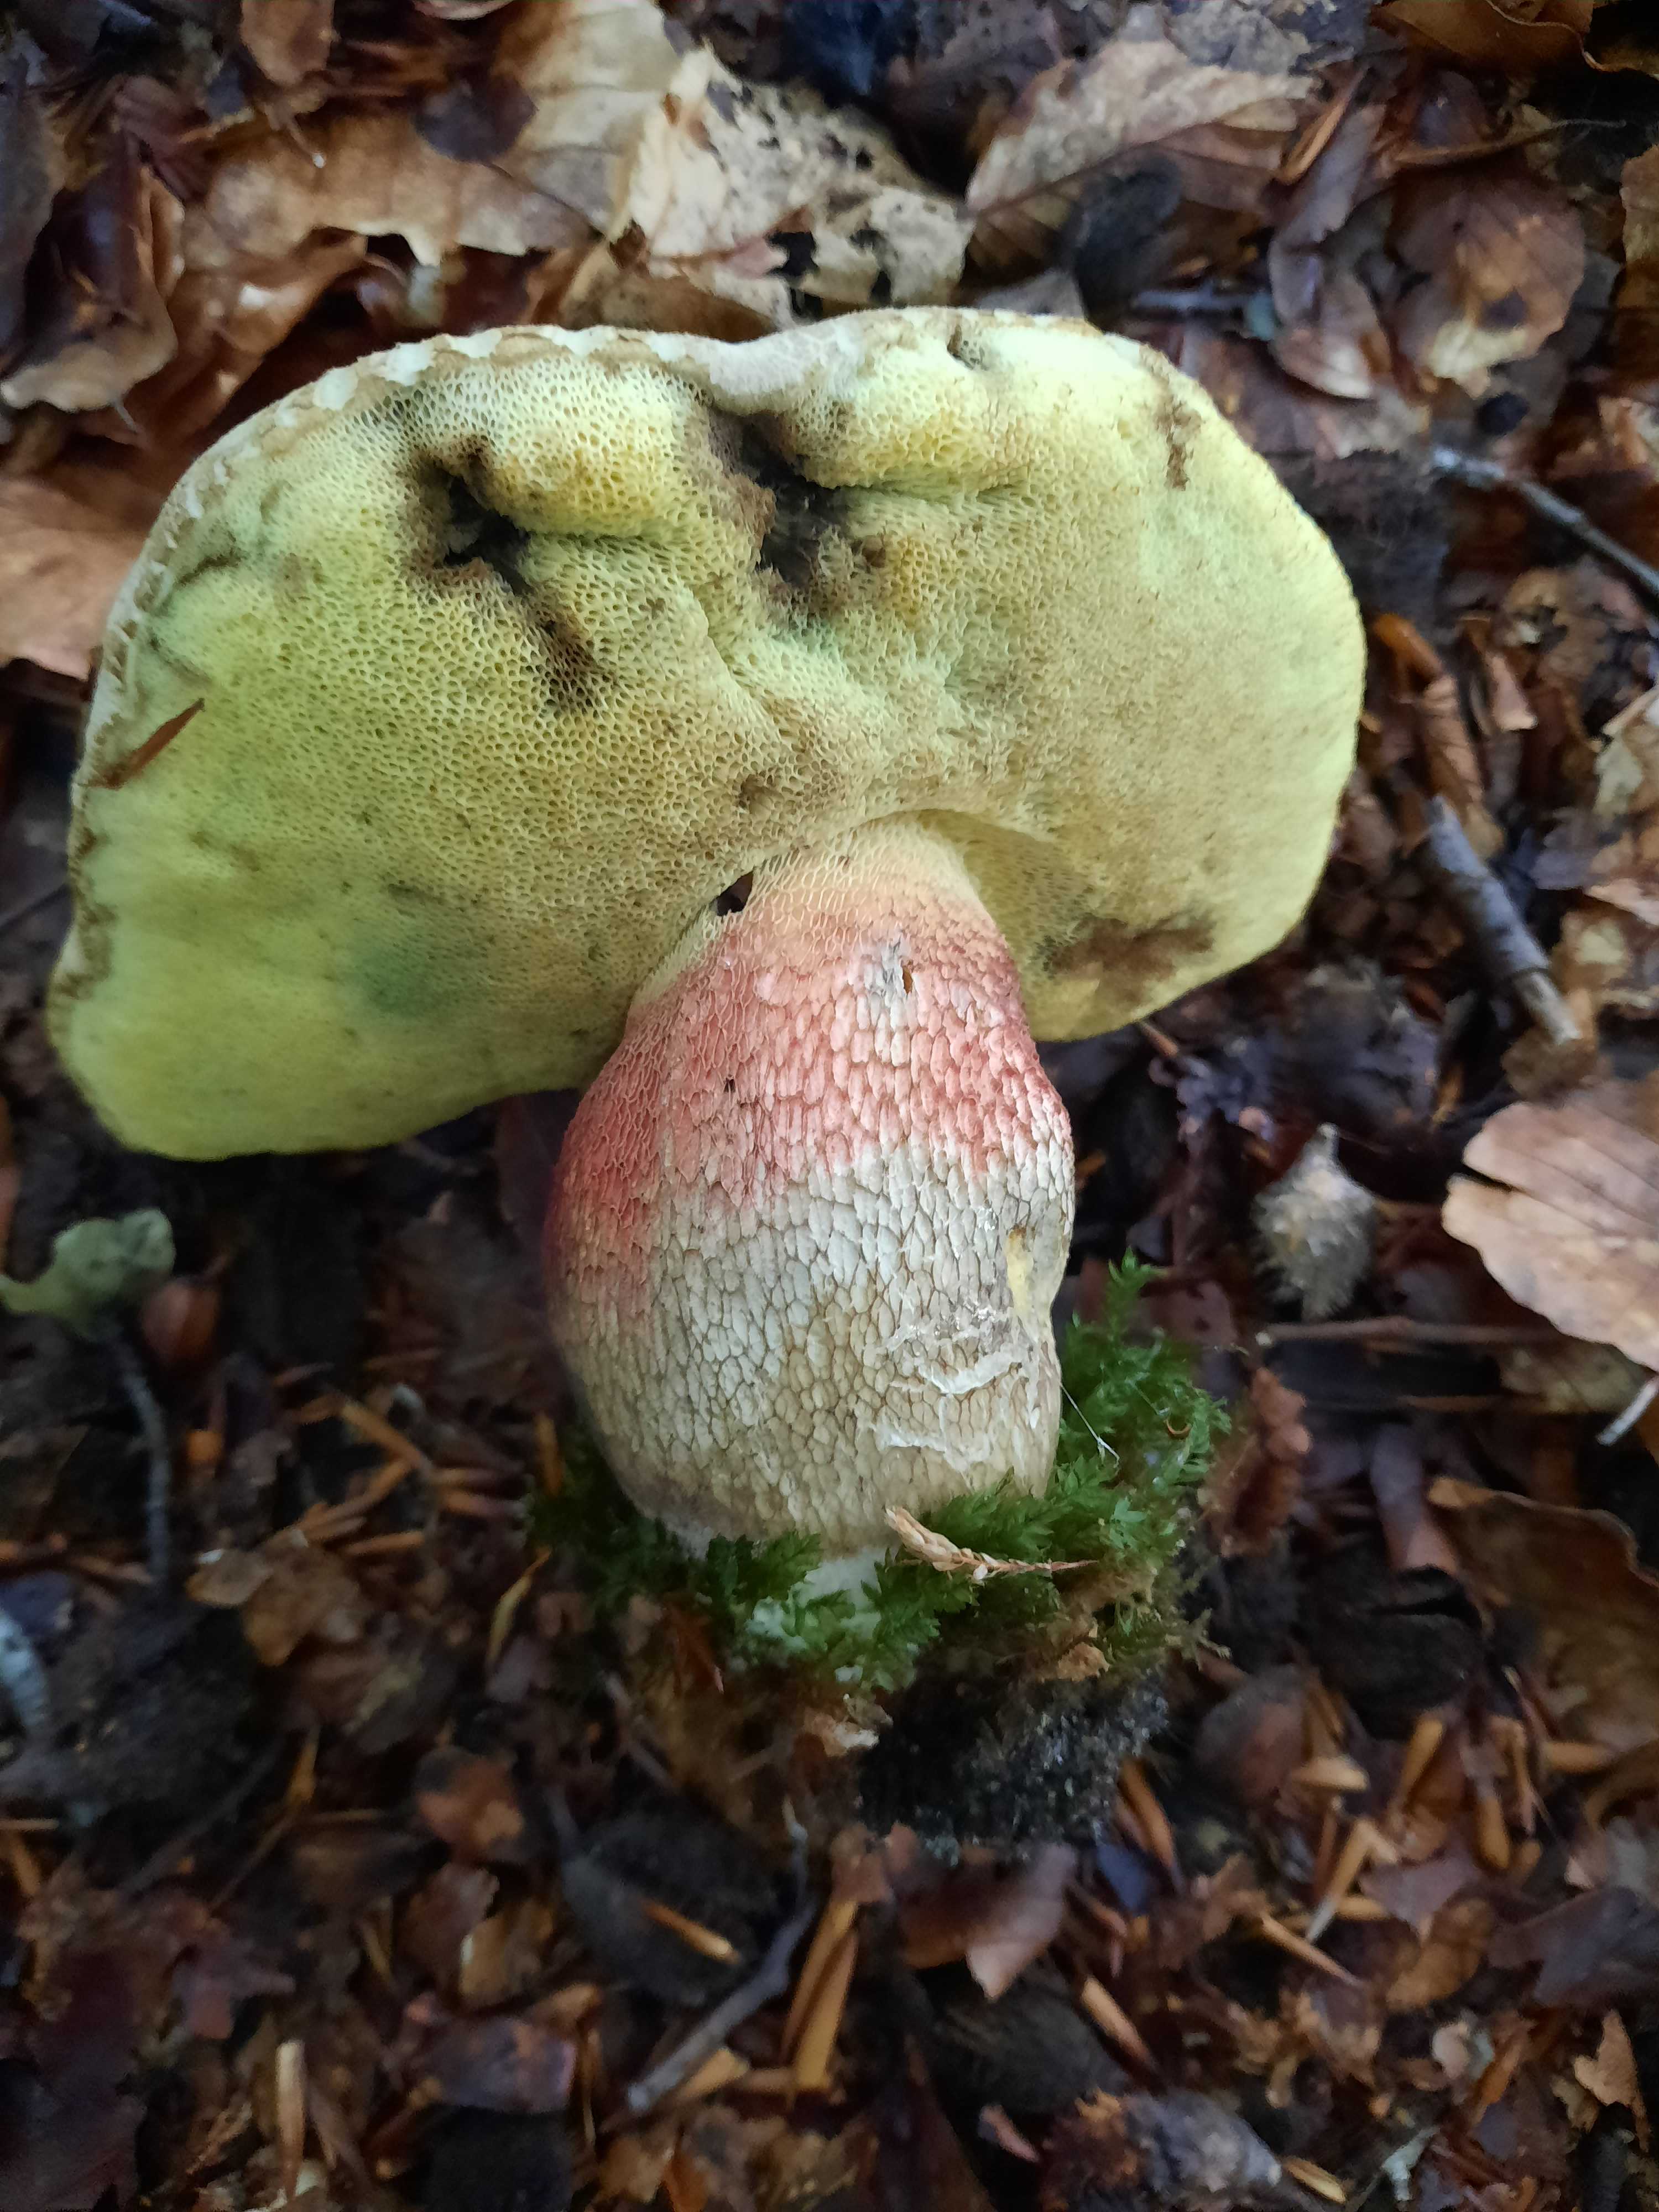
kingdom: Fungi
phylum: Basidiomycota
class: Agaricomycetes
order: Boletales
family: Boletaceae
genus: Caloboletus
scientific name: Caloboletus calopus
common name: skønfodet rørhat
